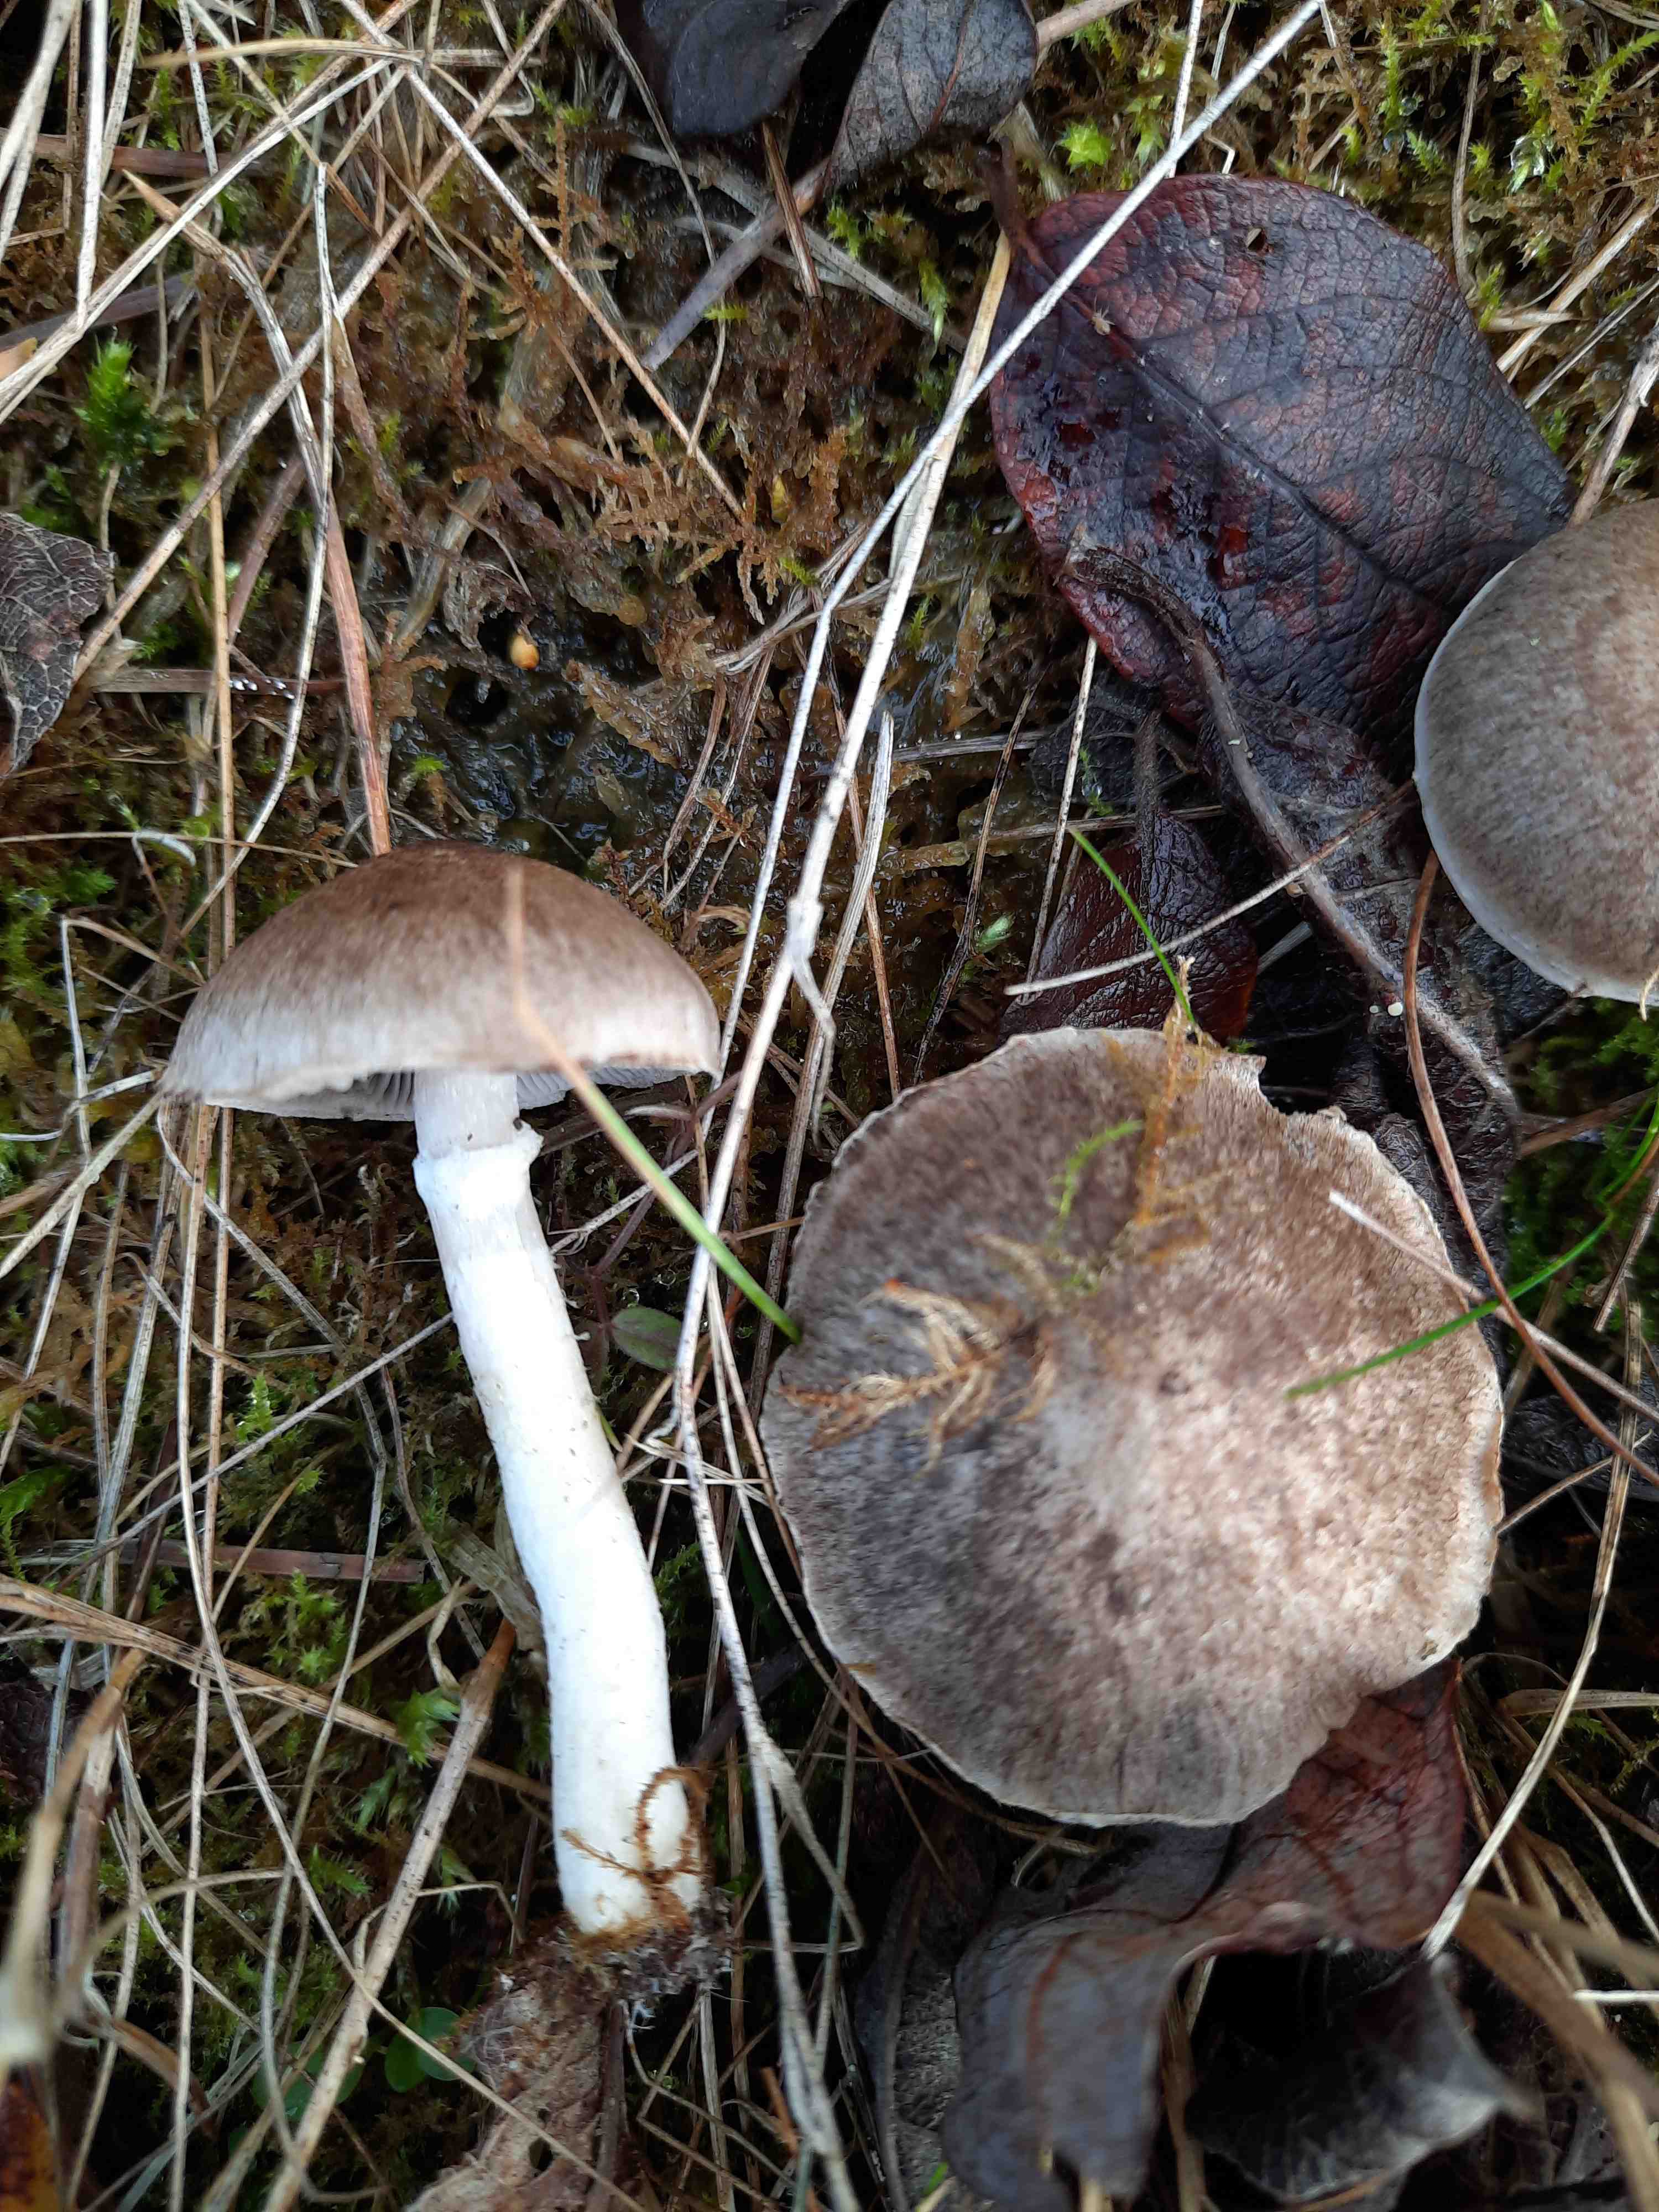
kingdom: Fungi
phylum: Basidiomycota
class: Agaricomycetes
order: Agaricales
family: Tricholomataceae
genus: Tricholoma
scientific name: Tricholoma cingulatum
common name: ring-ridderhat
